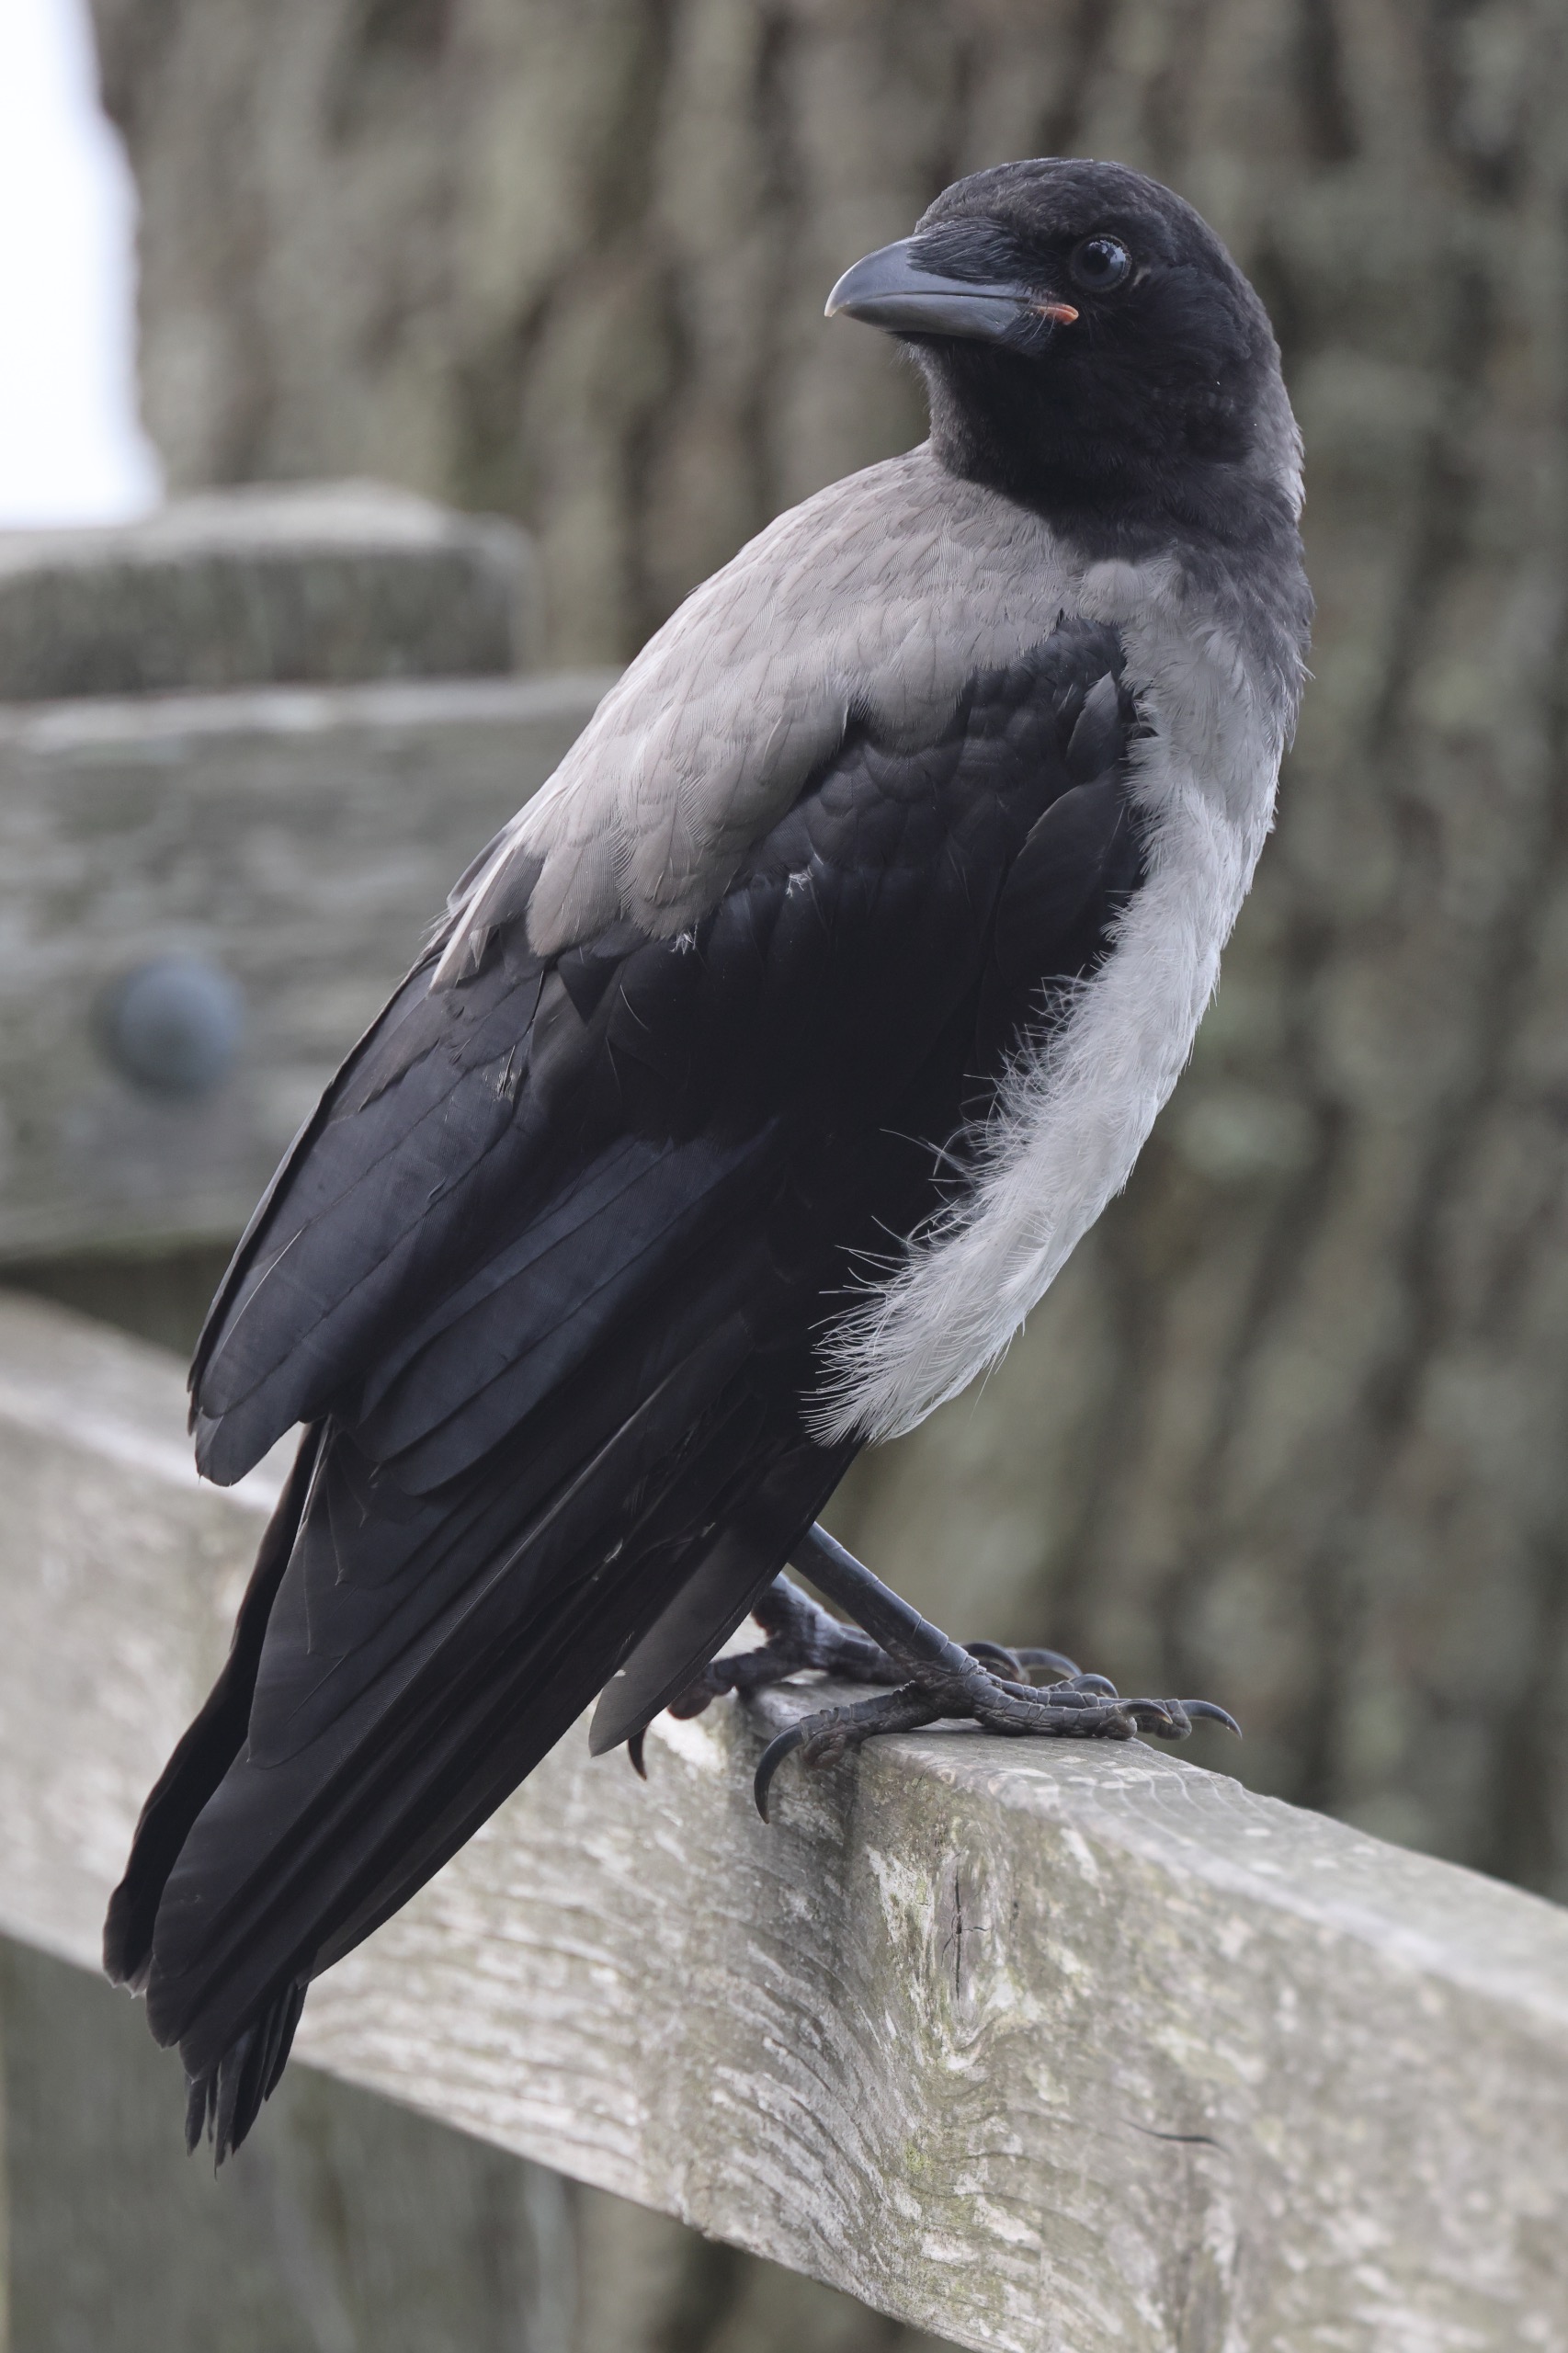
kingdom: Animalia
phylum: Chordata
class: Aves
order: Passeriformes
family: Corvidae
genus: Corvus
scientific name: Corvus cornix
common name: Gråkrage
